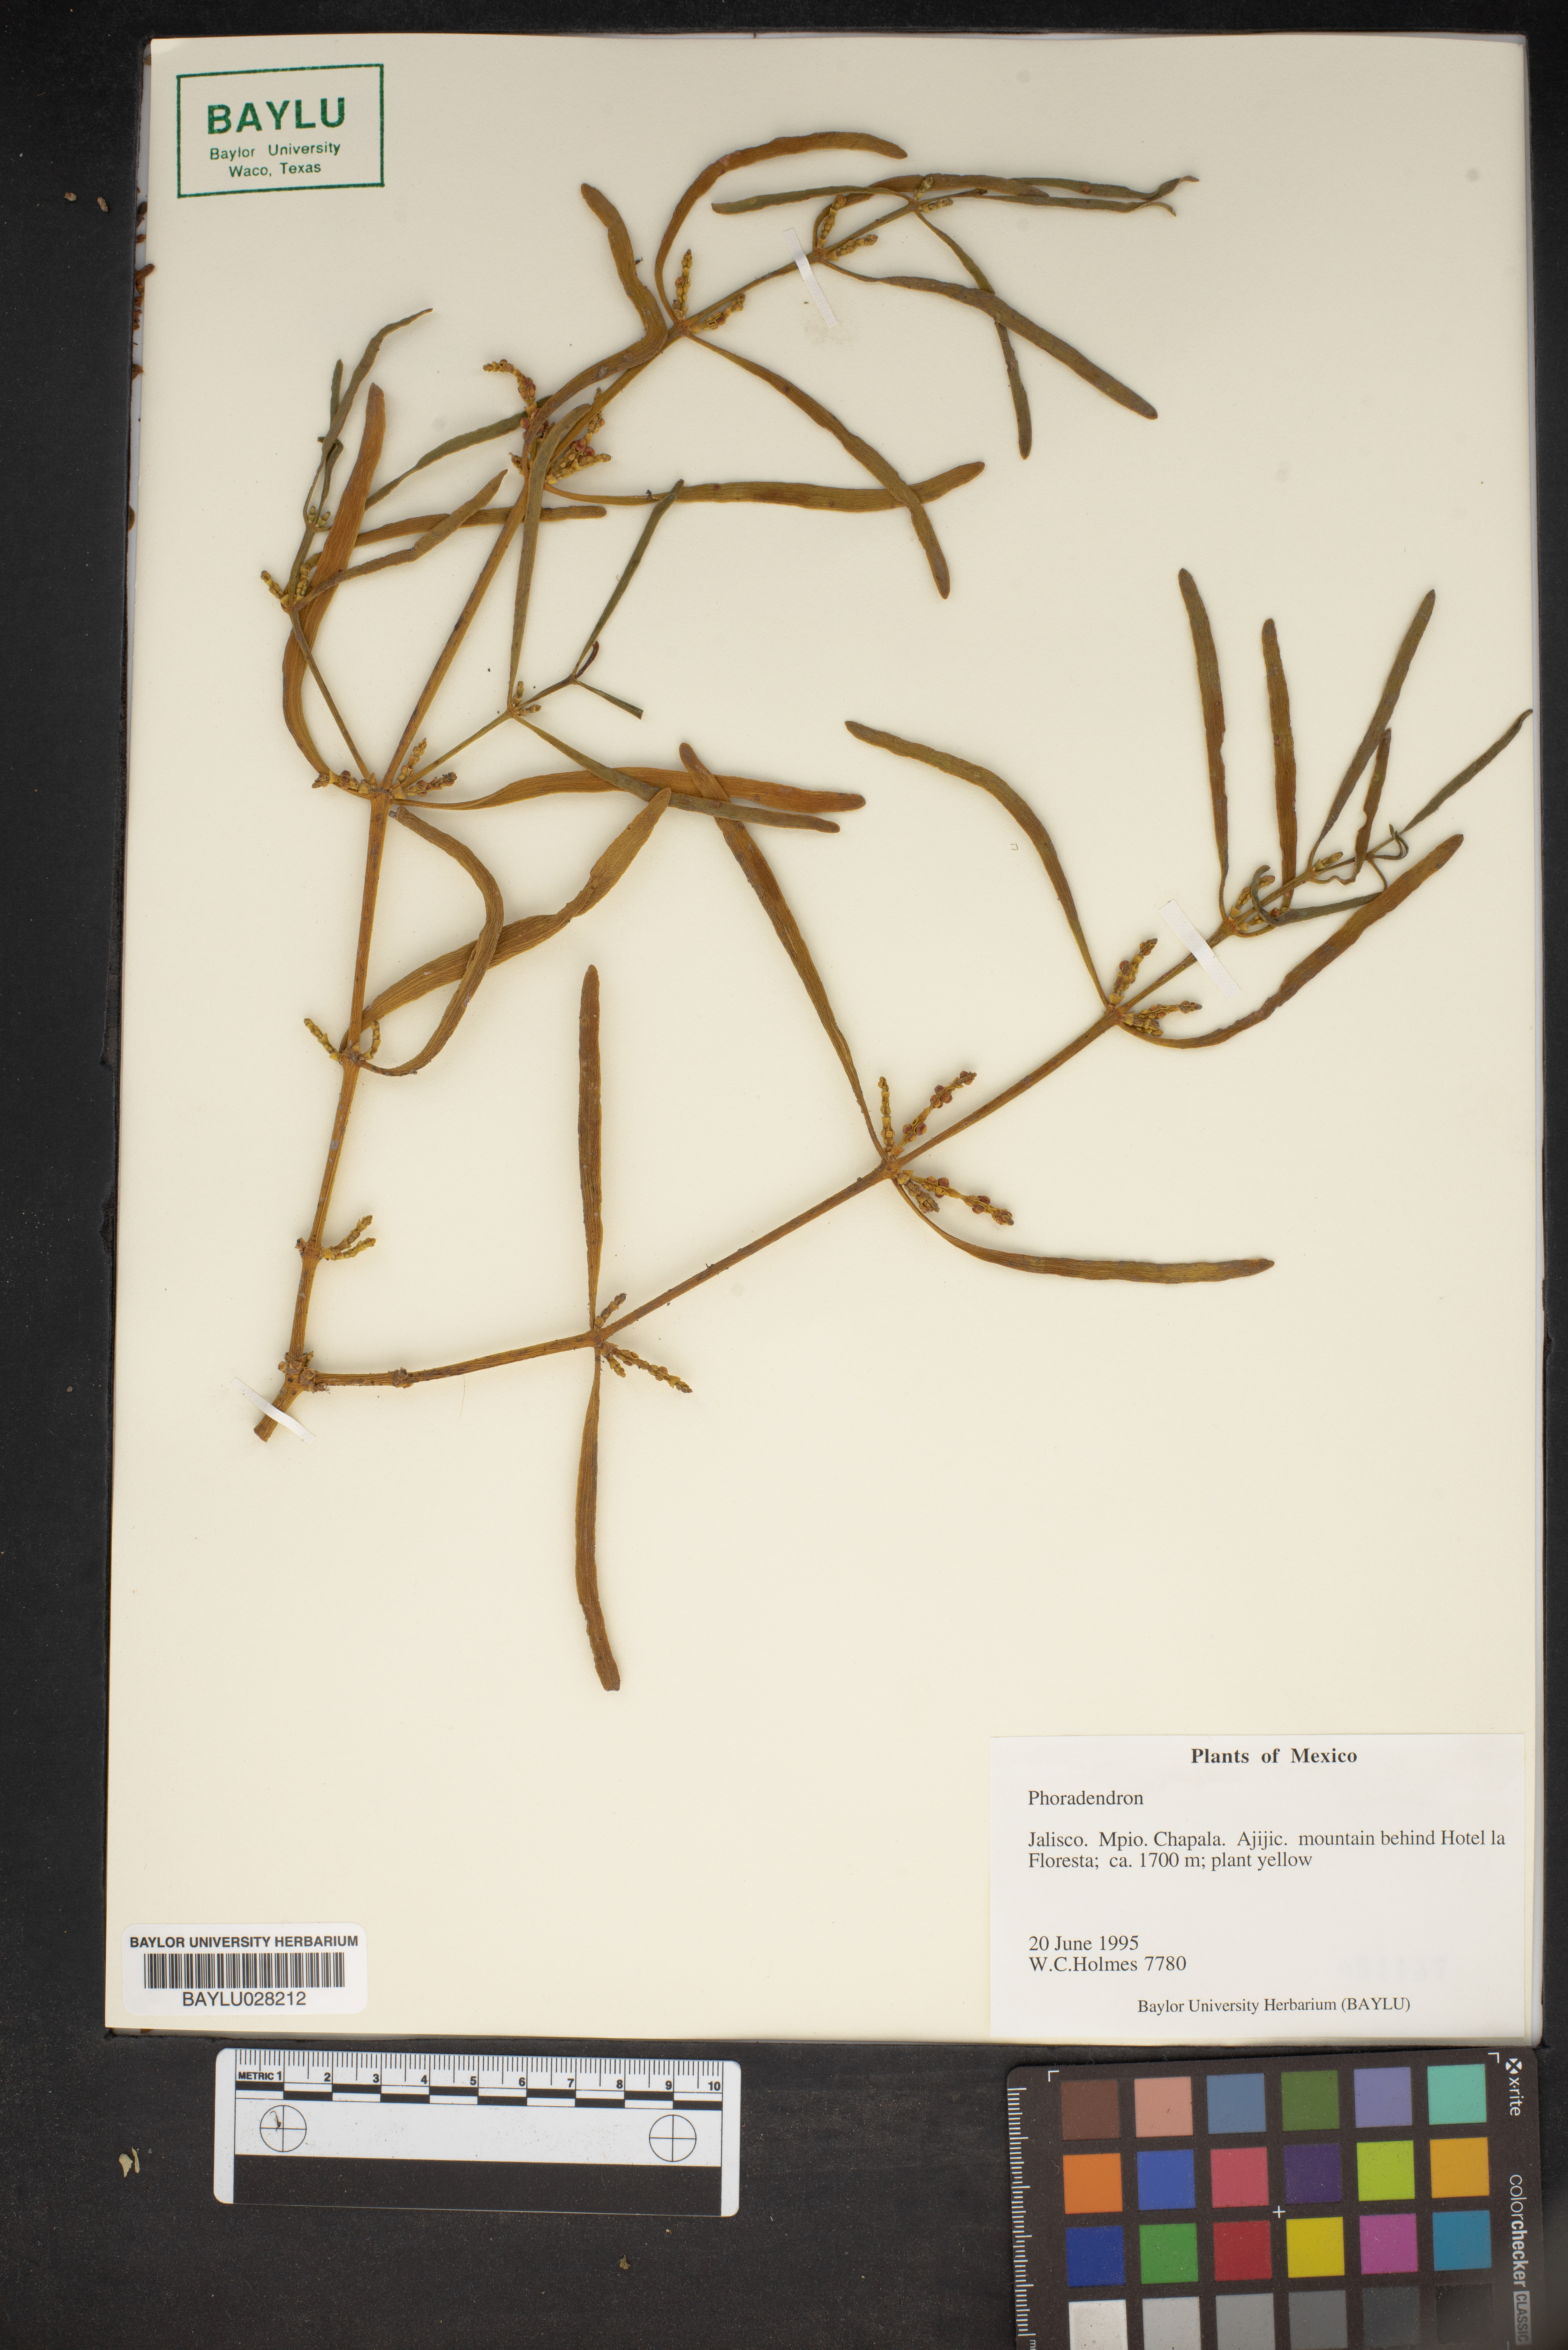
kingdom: Plantae
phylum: Tracheophyta
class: Magnoliopsida
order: Santalales
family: Viscaceae
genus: Phoradendron
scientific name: Phoradendron
